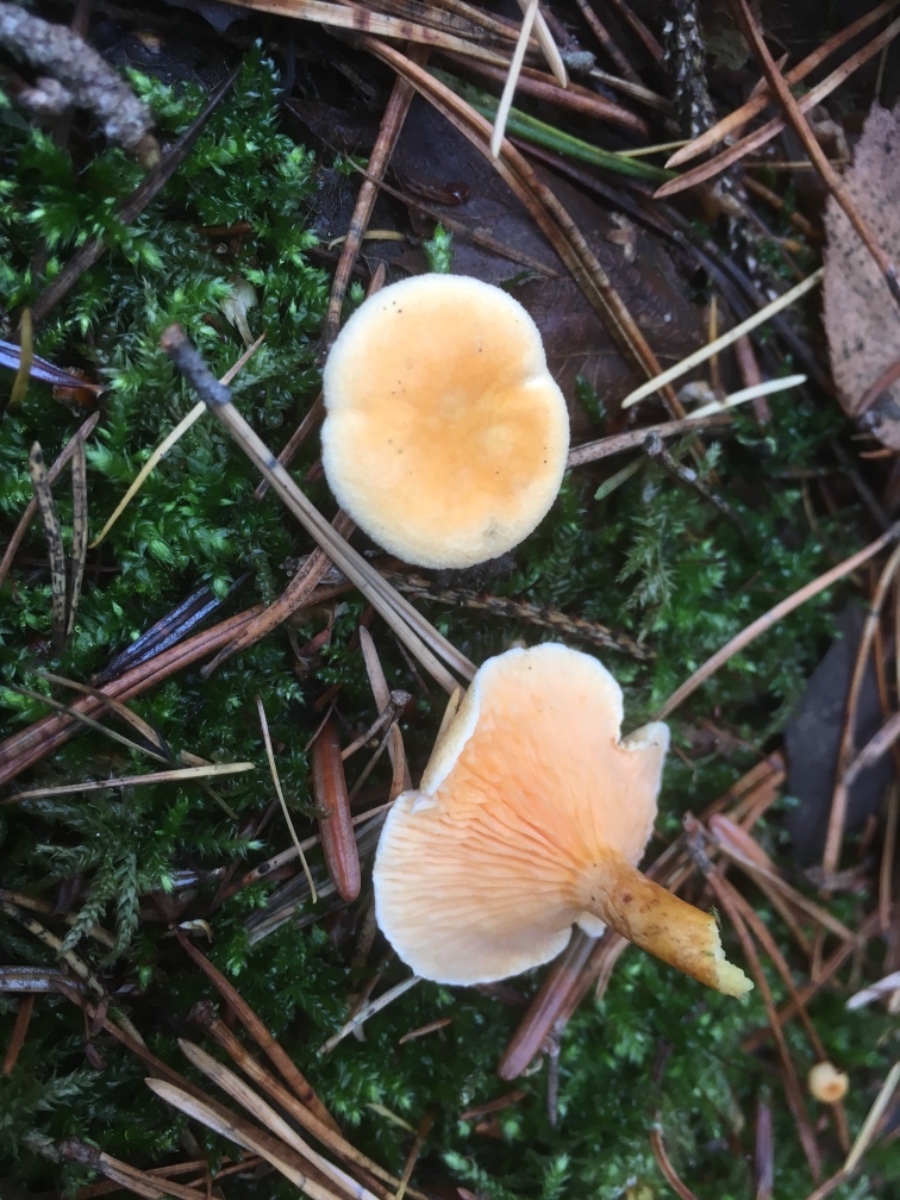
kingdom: Fungi
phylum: Basidiomycota
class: Agaricomycetes
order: Boletales
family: Hygrophoropsidaceae
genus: Hygrophoropsis
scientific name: Hygrophoropsis aurantiaca
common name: almindelig orangekantarel
